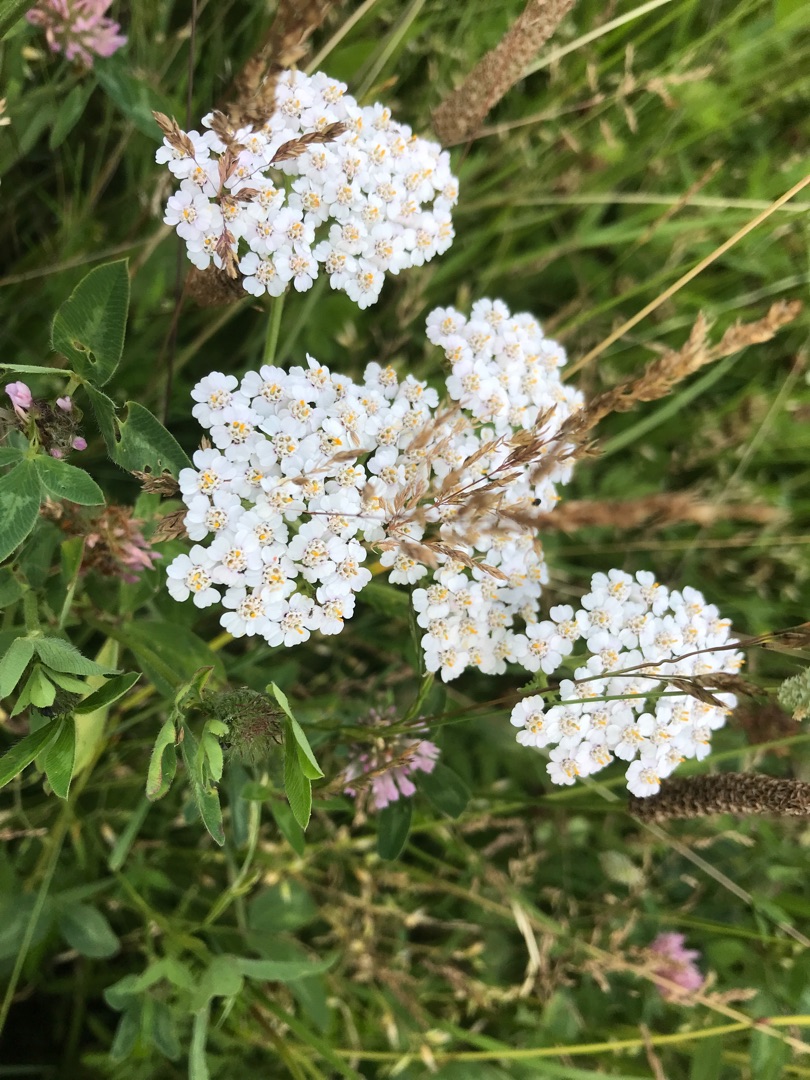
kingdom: Plantae
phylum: Tracheophyta
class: Magnoliopsida
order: Asterales
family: Asteraceae
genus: Achillea
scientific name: Achillea millefolium
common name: Almindelig røllike
